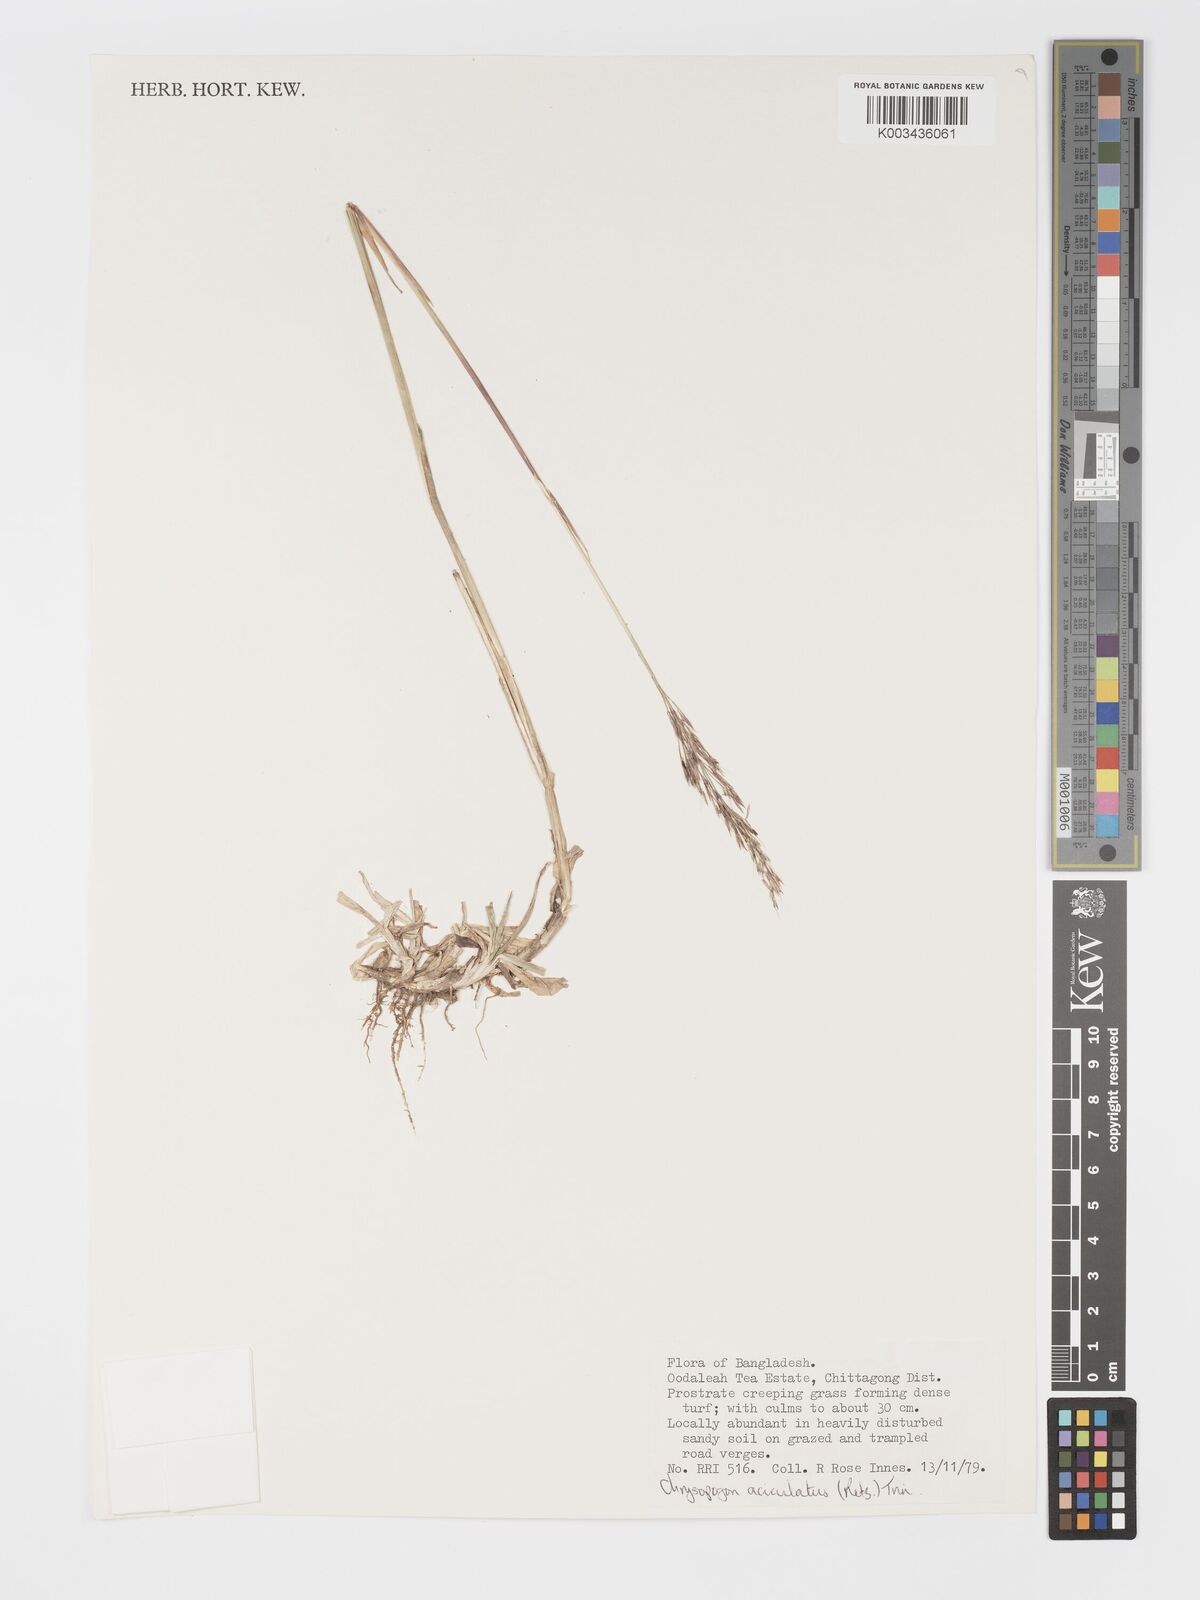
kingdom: Plantae
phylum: Tracheophyta
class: Liliopsida
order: Poales
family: Poaceae
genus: Chrysopogon
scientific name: Chrysopogon aciculatus
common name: Pilipiliula
